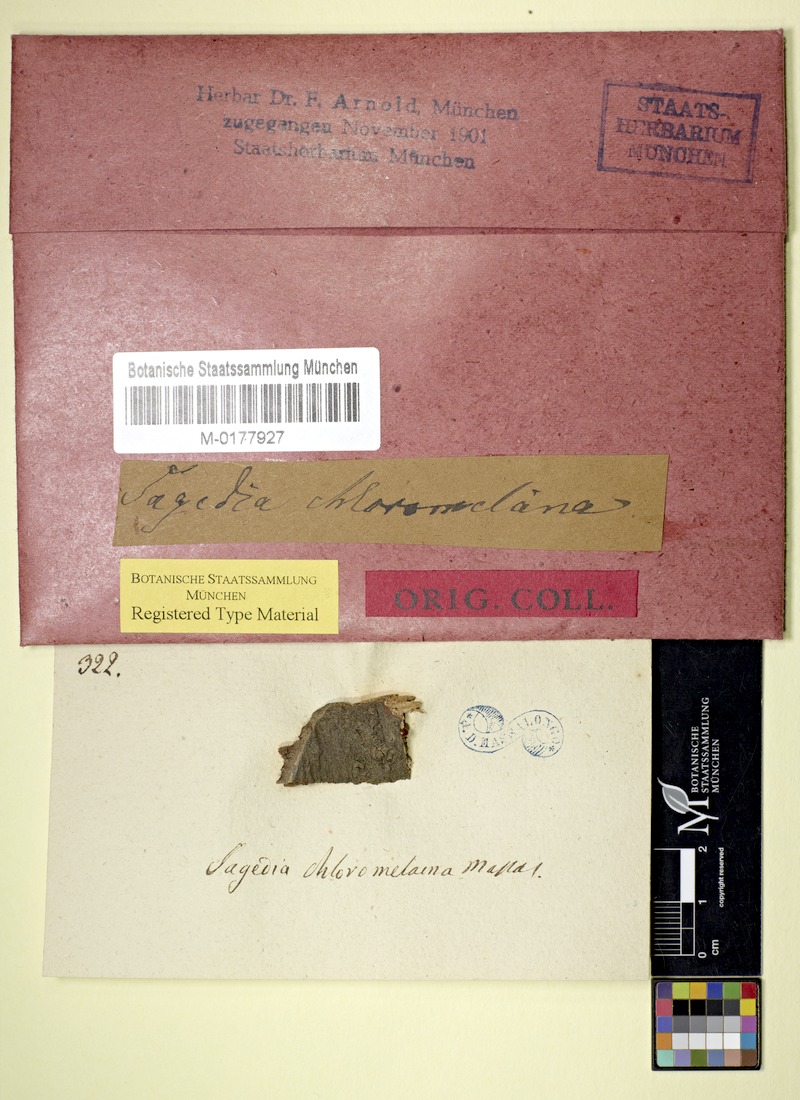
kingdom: Fungi
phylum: Ascomycota
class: Lecanoromycetes
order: Pertusariales
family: Pertusariaceae
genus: Porina
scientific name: Porina
